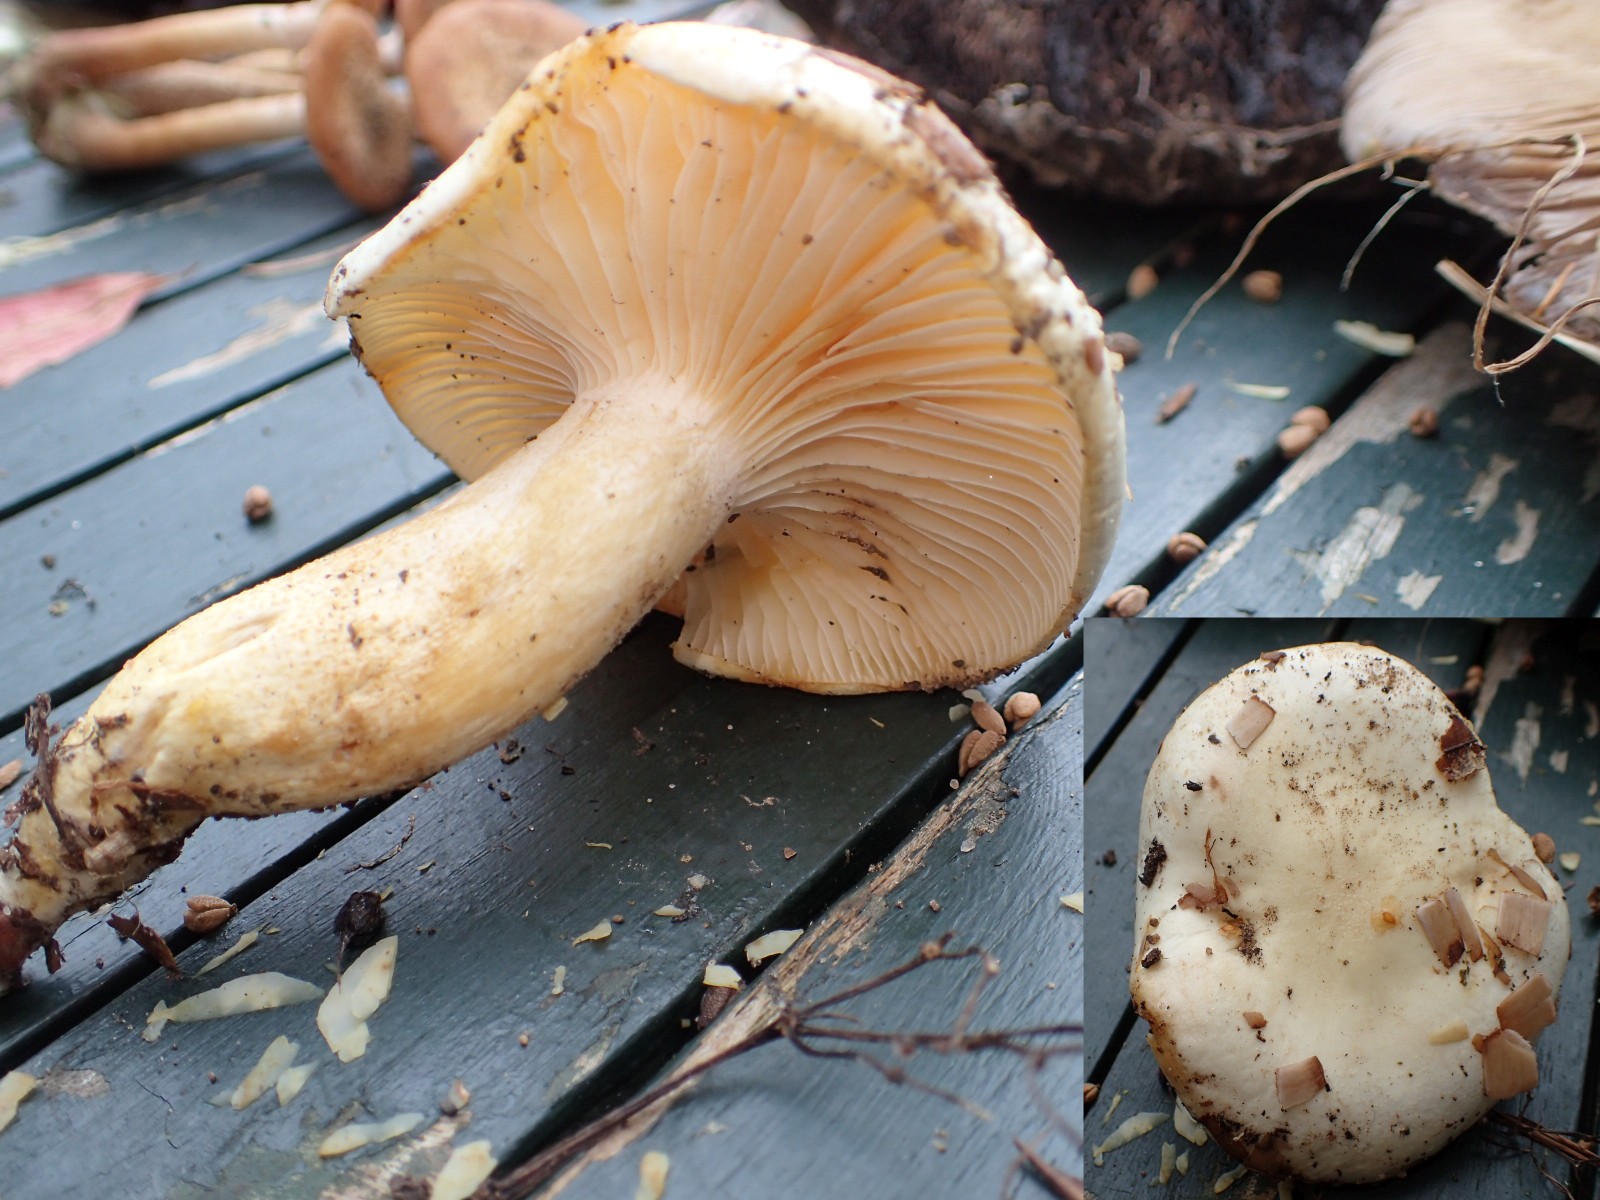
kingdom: Fungi
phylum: Basidiomycota
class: Agaricomycetes
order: Agaricales
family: Hygrophoraceae
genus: Hygrophorus
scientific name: Hygrophorus discoxanthus
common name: ildelugtende sneglehat
